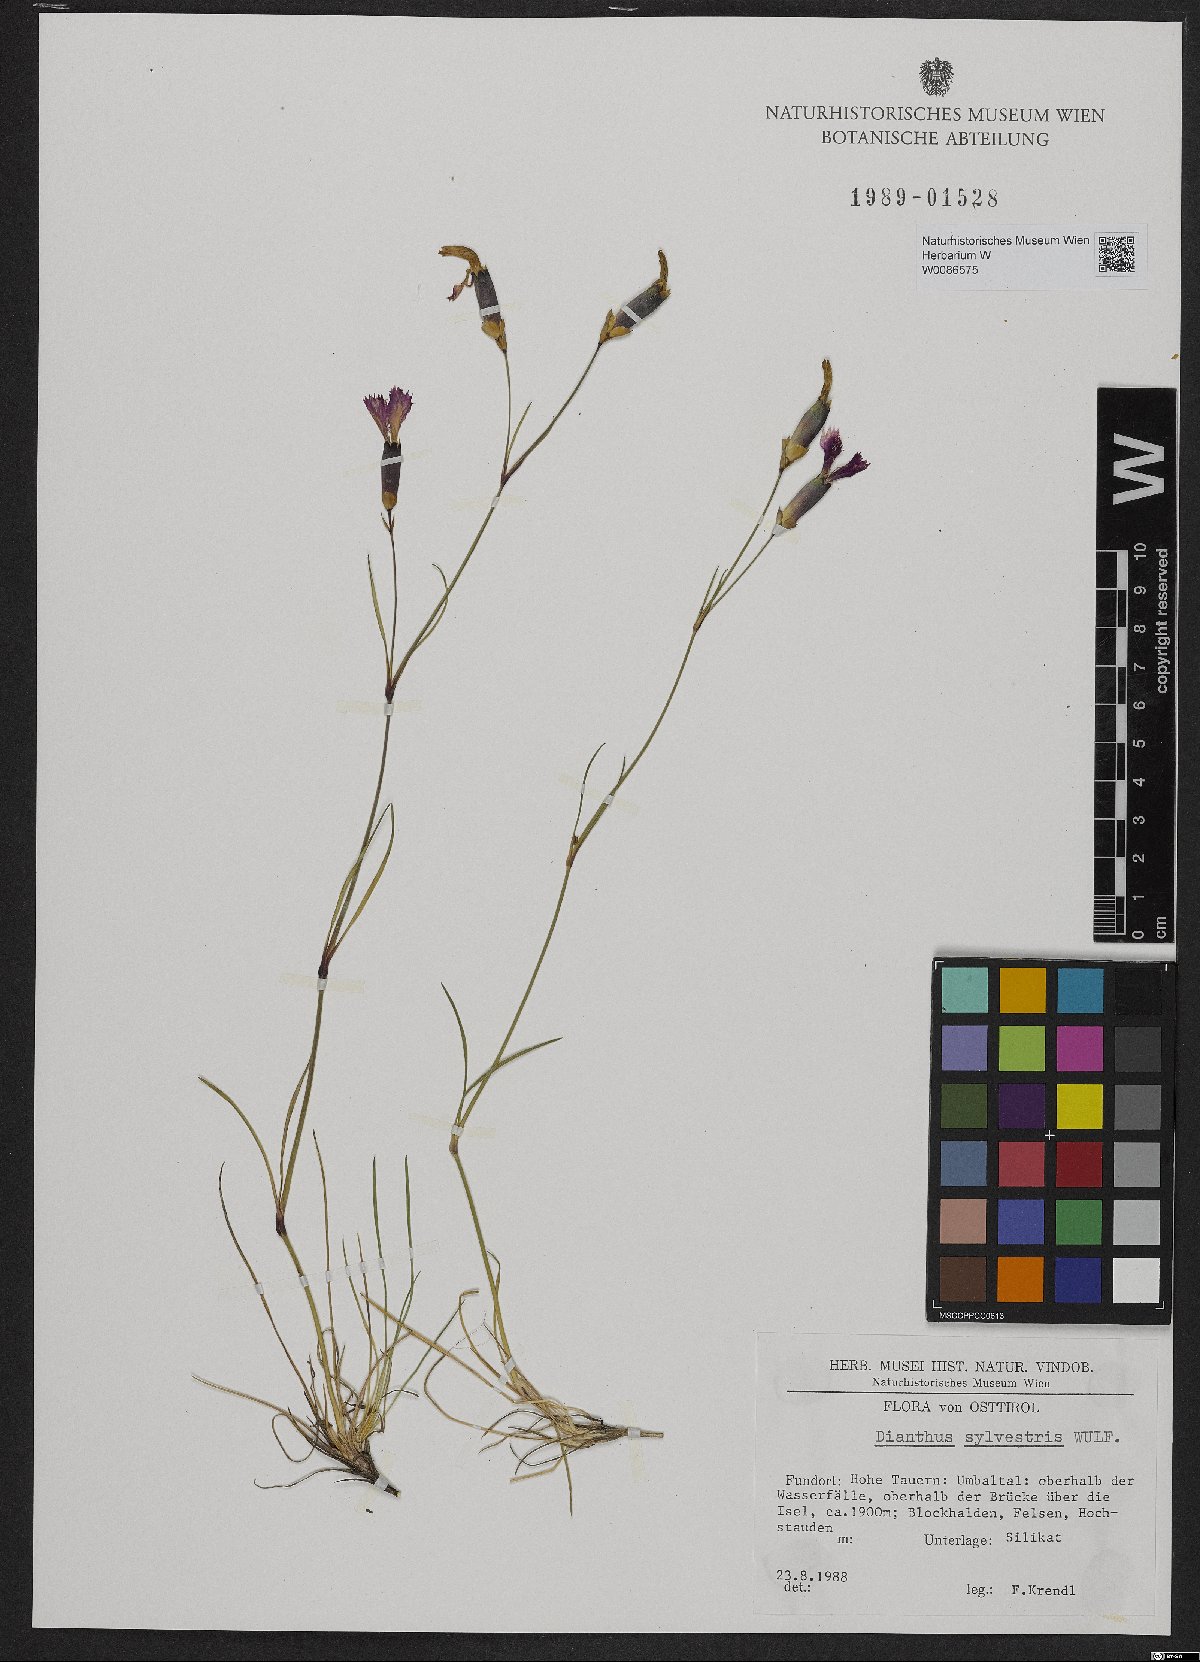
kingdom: Plantae
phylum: Tracheophyta
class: Magnoliopsida
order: Caryophyllales
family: Caryophyllaceae
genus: Dianthus
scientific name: Dianthus sylvestris
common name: Wood pink
